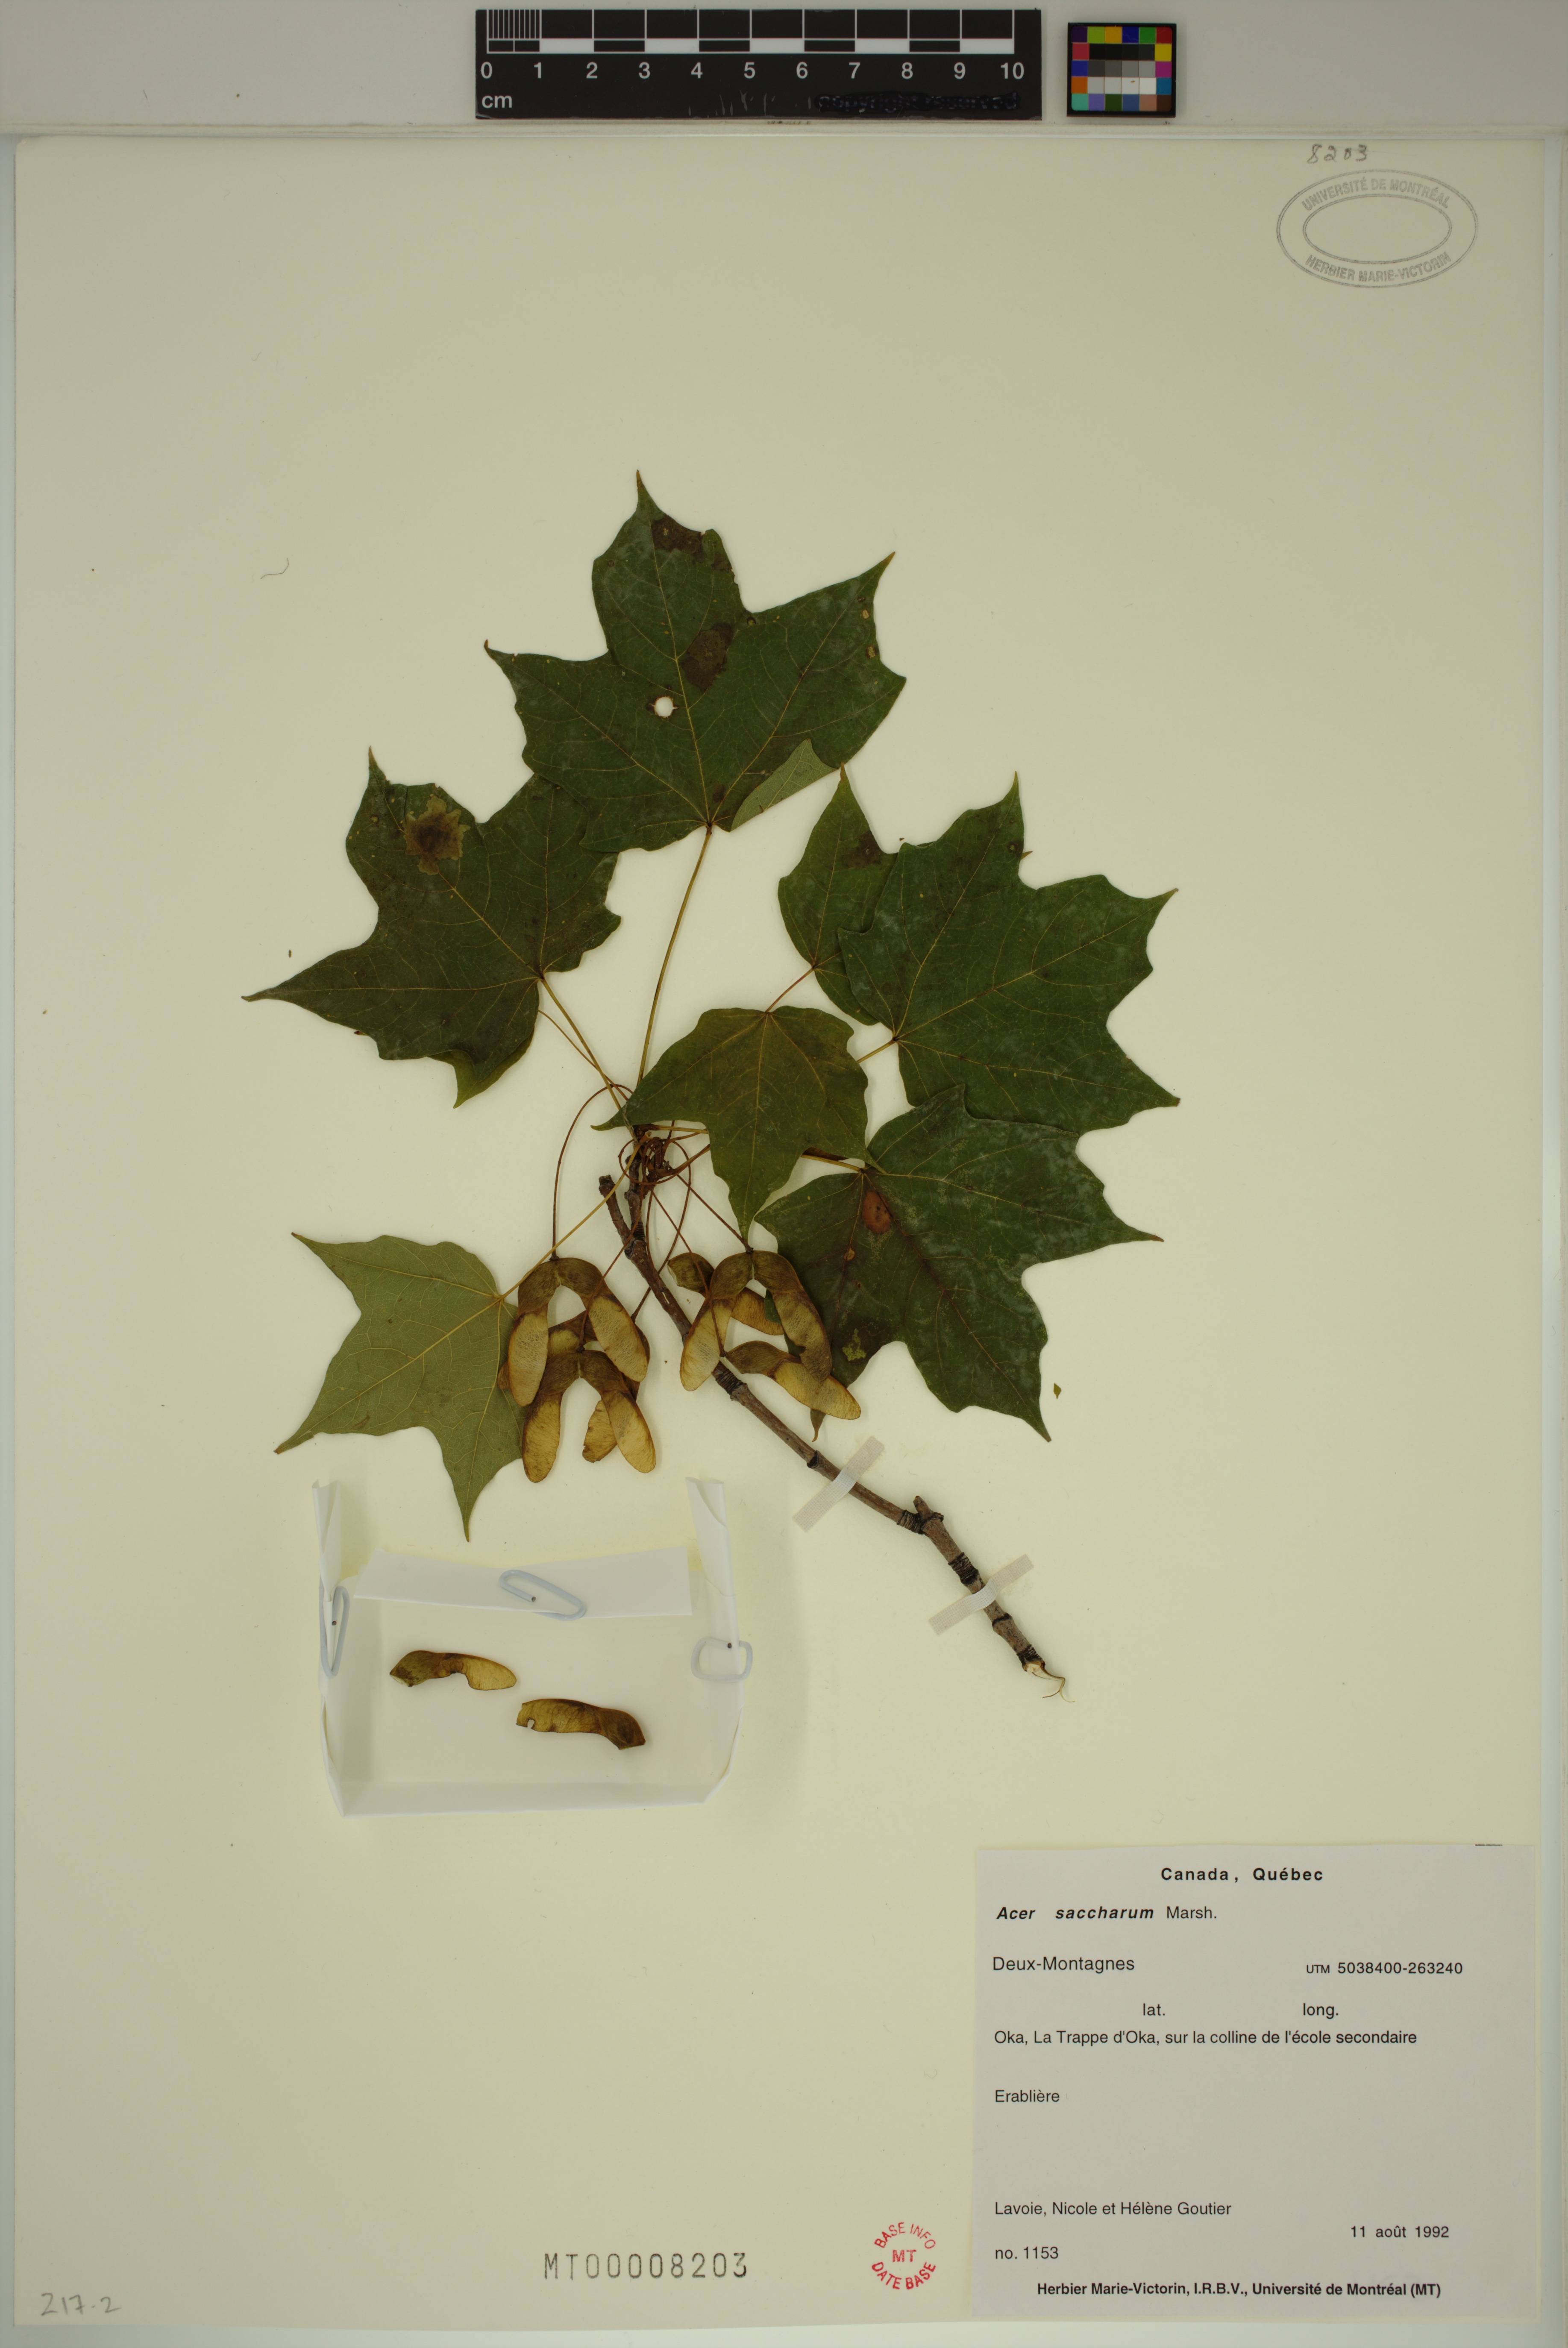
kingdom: Plantae
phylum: Tracheophyta
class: Magnoliopsida
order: Sapindales
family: Sapindaceae
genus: Acer
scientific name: Acer saccharum
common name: Sugar maple
